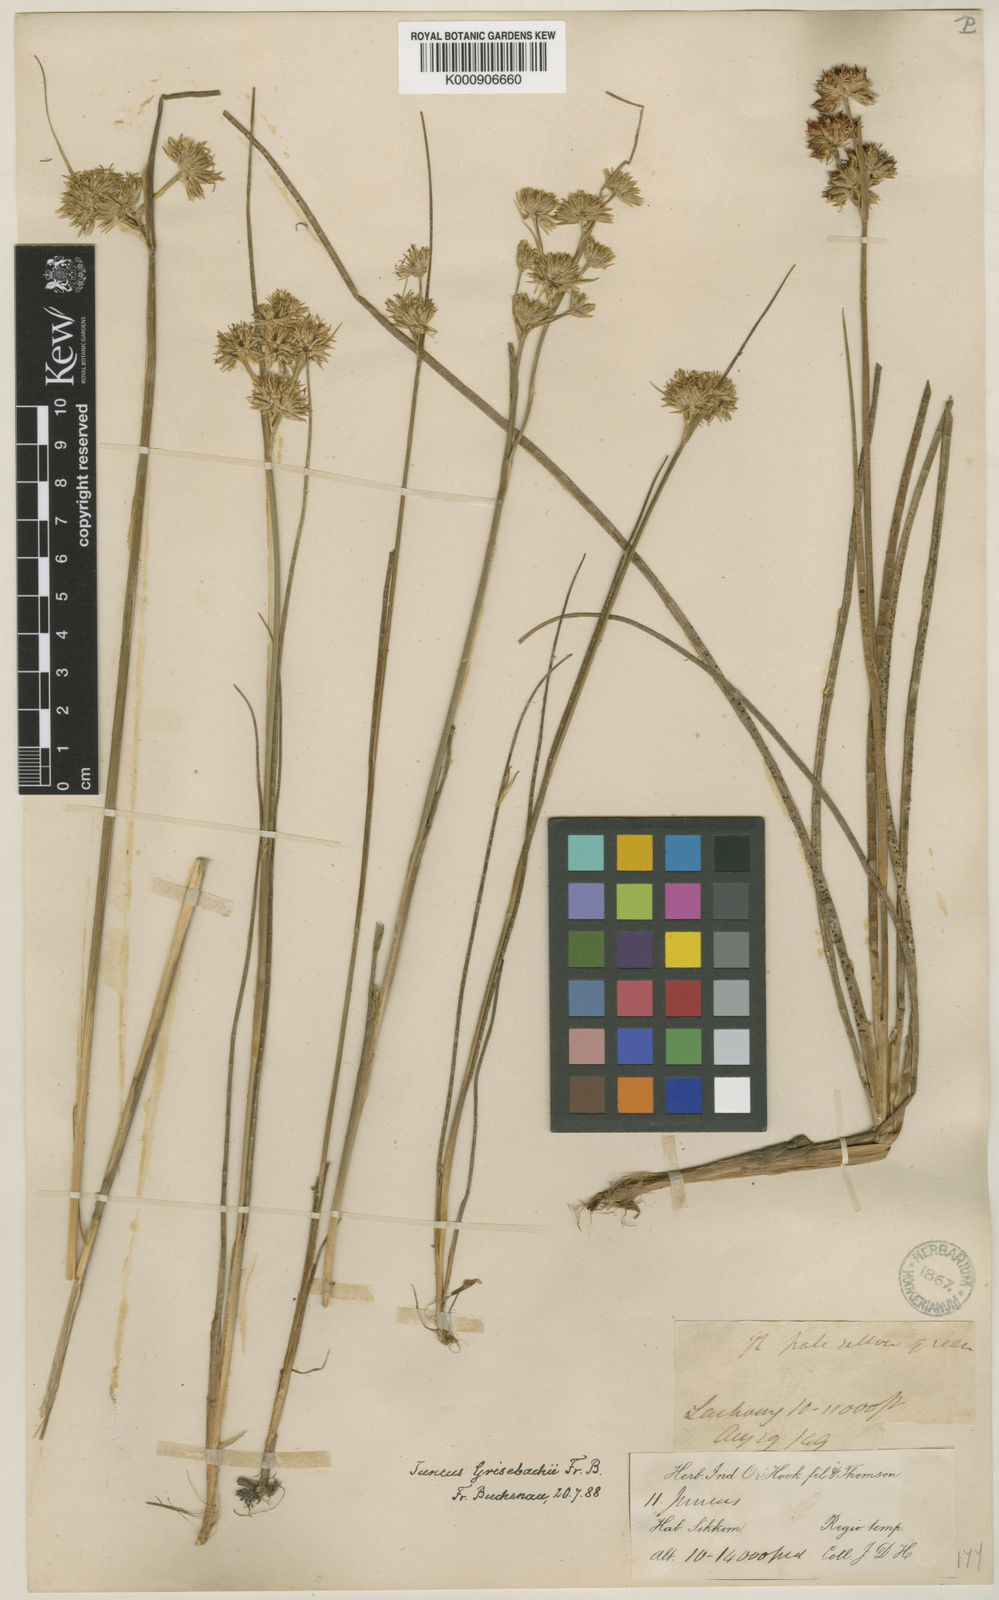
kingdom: Plantae
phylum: Tracheophyta
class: Liliopsida
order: Poales
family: Juncaceae
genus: Juncus
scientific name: Juncus grisebachii
